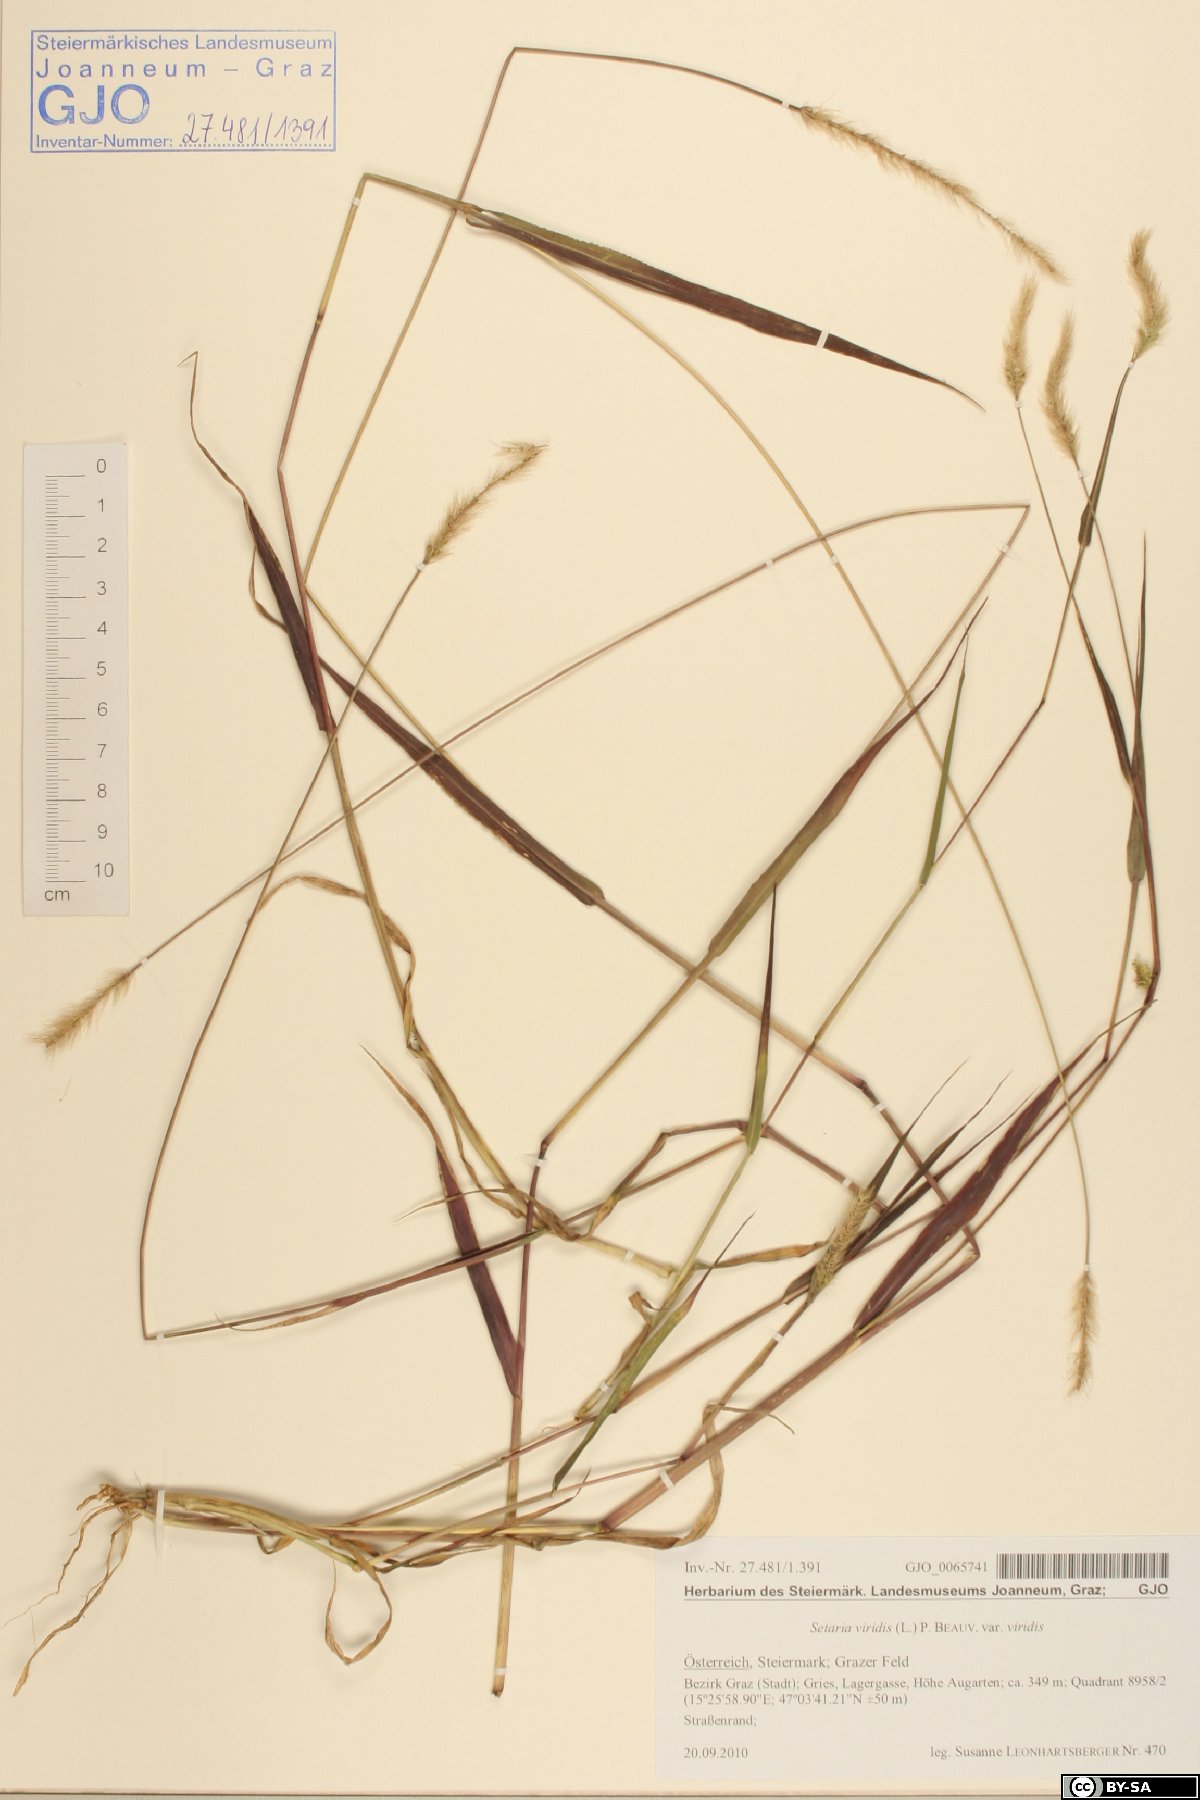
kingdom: Plantae
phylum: Tracheophyta
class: Liliopsida
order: Poales
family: Poaceae
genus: Setaria
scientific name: Setaria viridis
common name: Green bristlegrass
